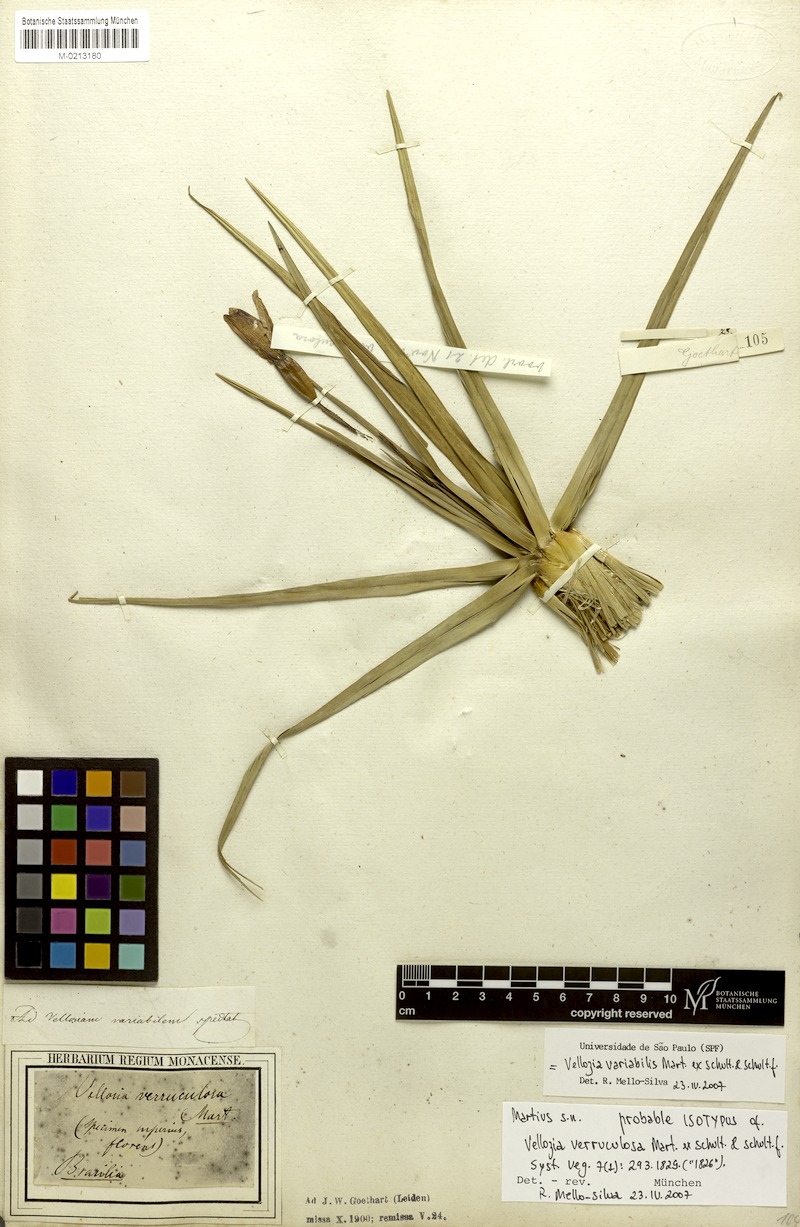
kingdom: Plantae
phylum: Tracheophyta
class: Liliopsida
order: Pandanales
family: Velloziaceae
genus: Vellozia
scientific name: Vellozia variabilis
